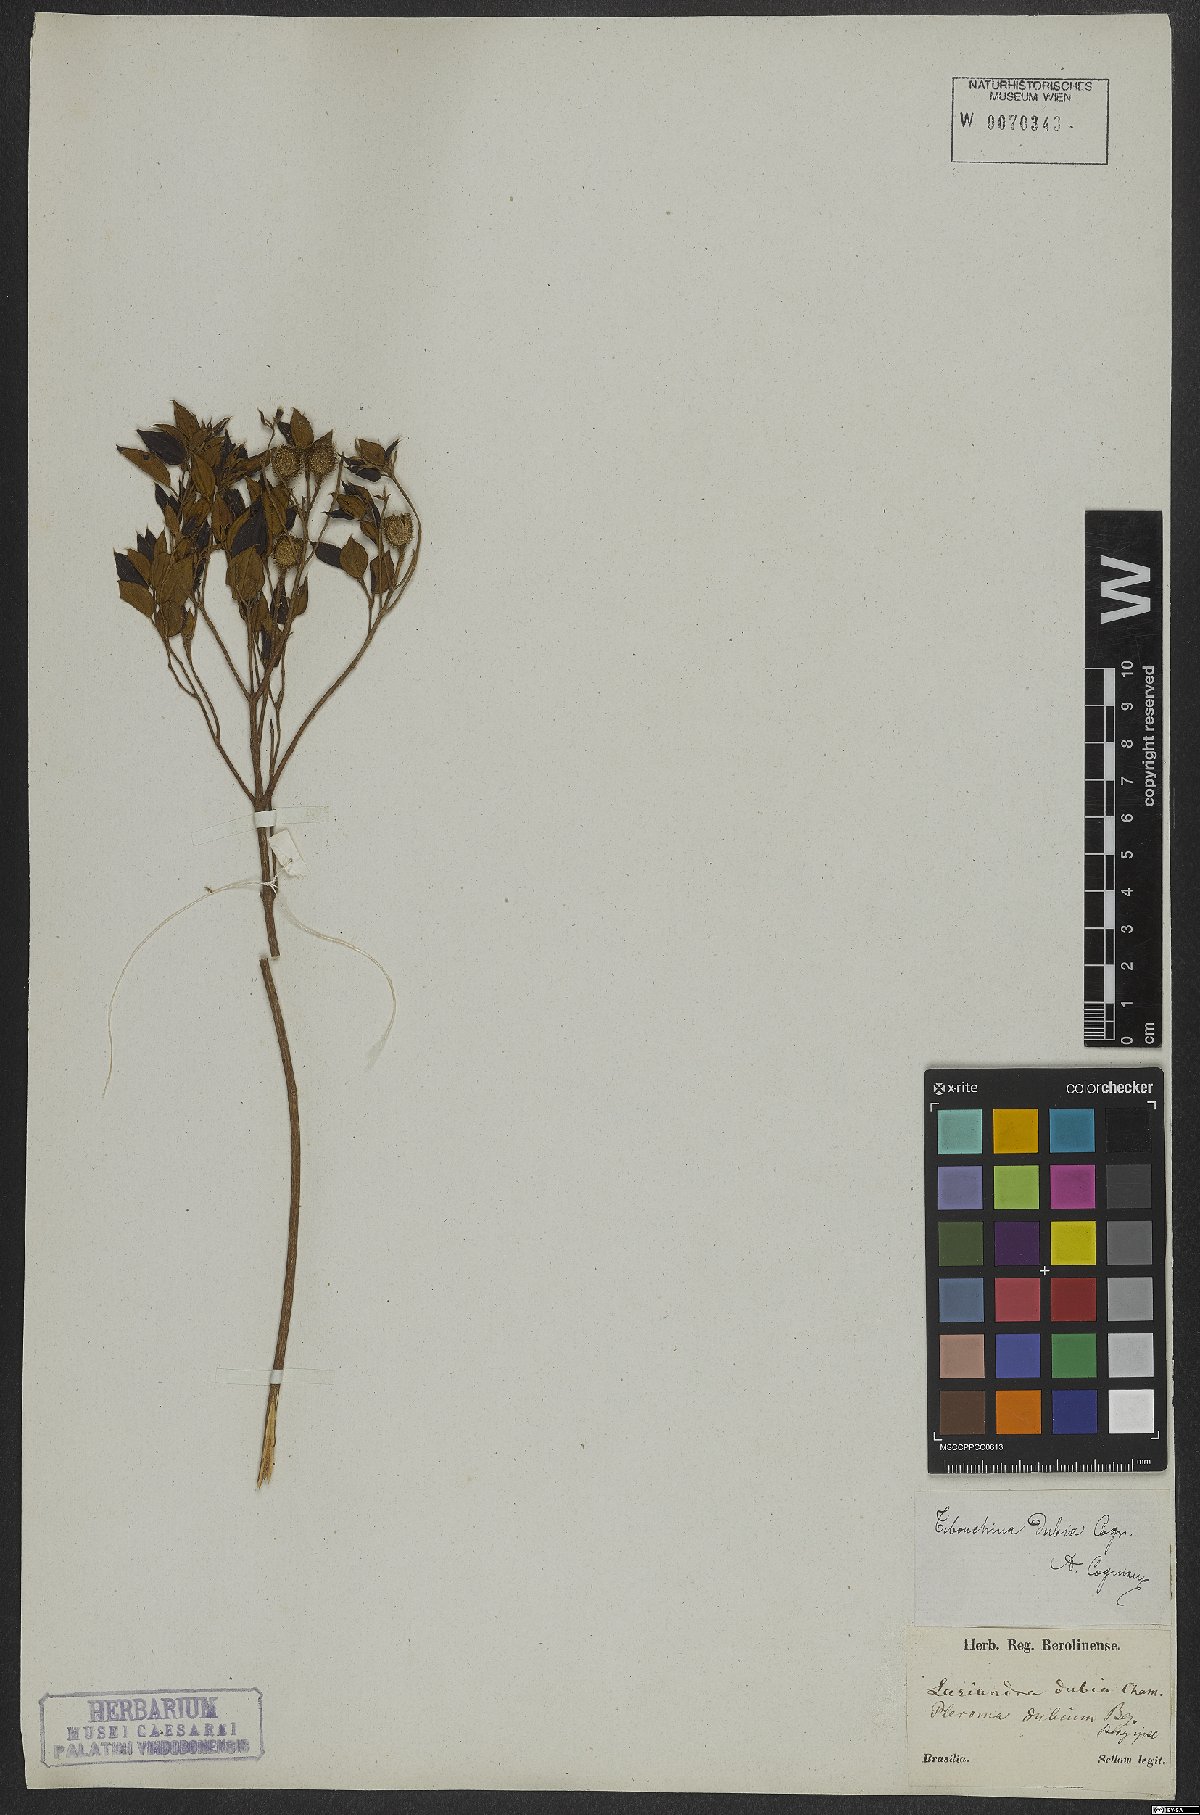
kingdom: Plantae
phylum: Tracheophyta
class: Magnoliopsida
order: Myrtales
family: Melastomataceae
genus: Pleroma
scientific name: Pleroma dubium
